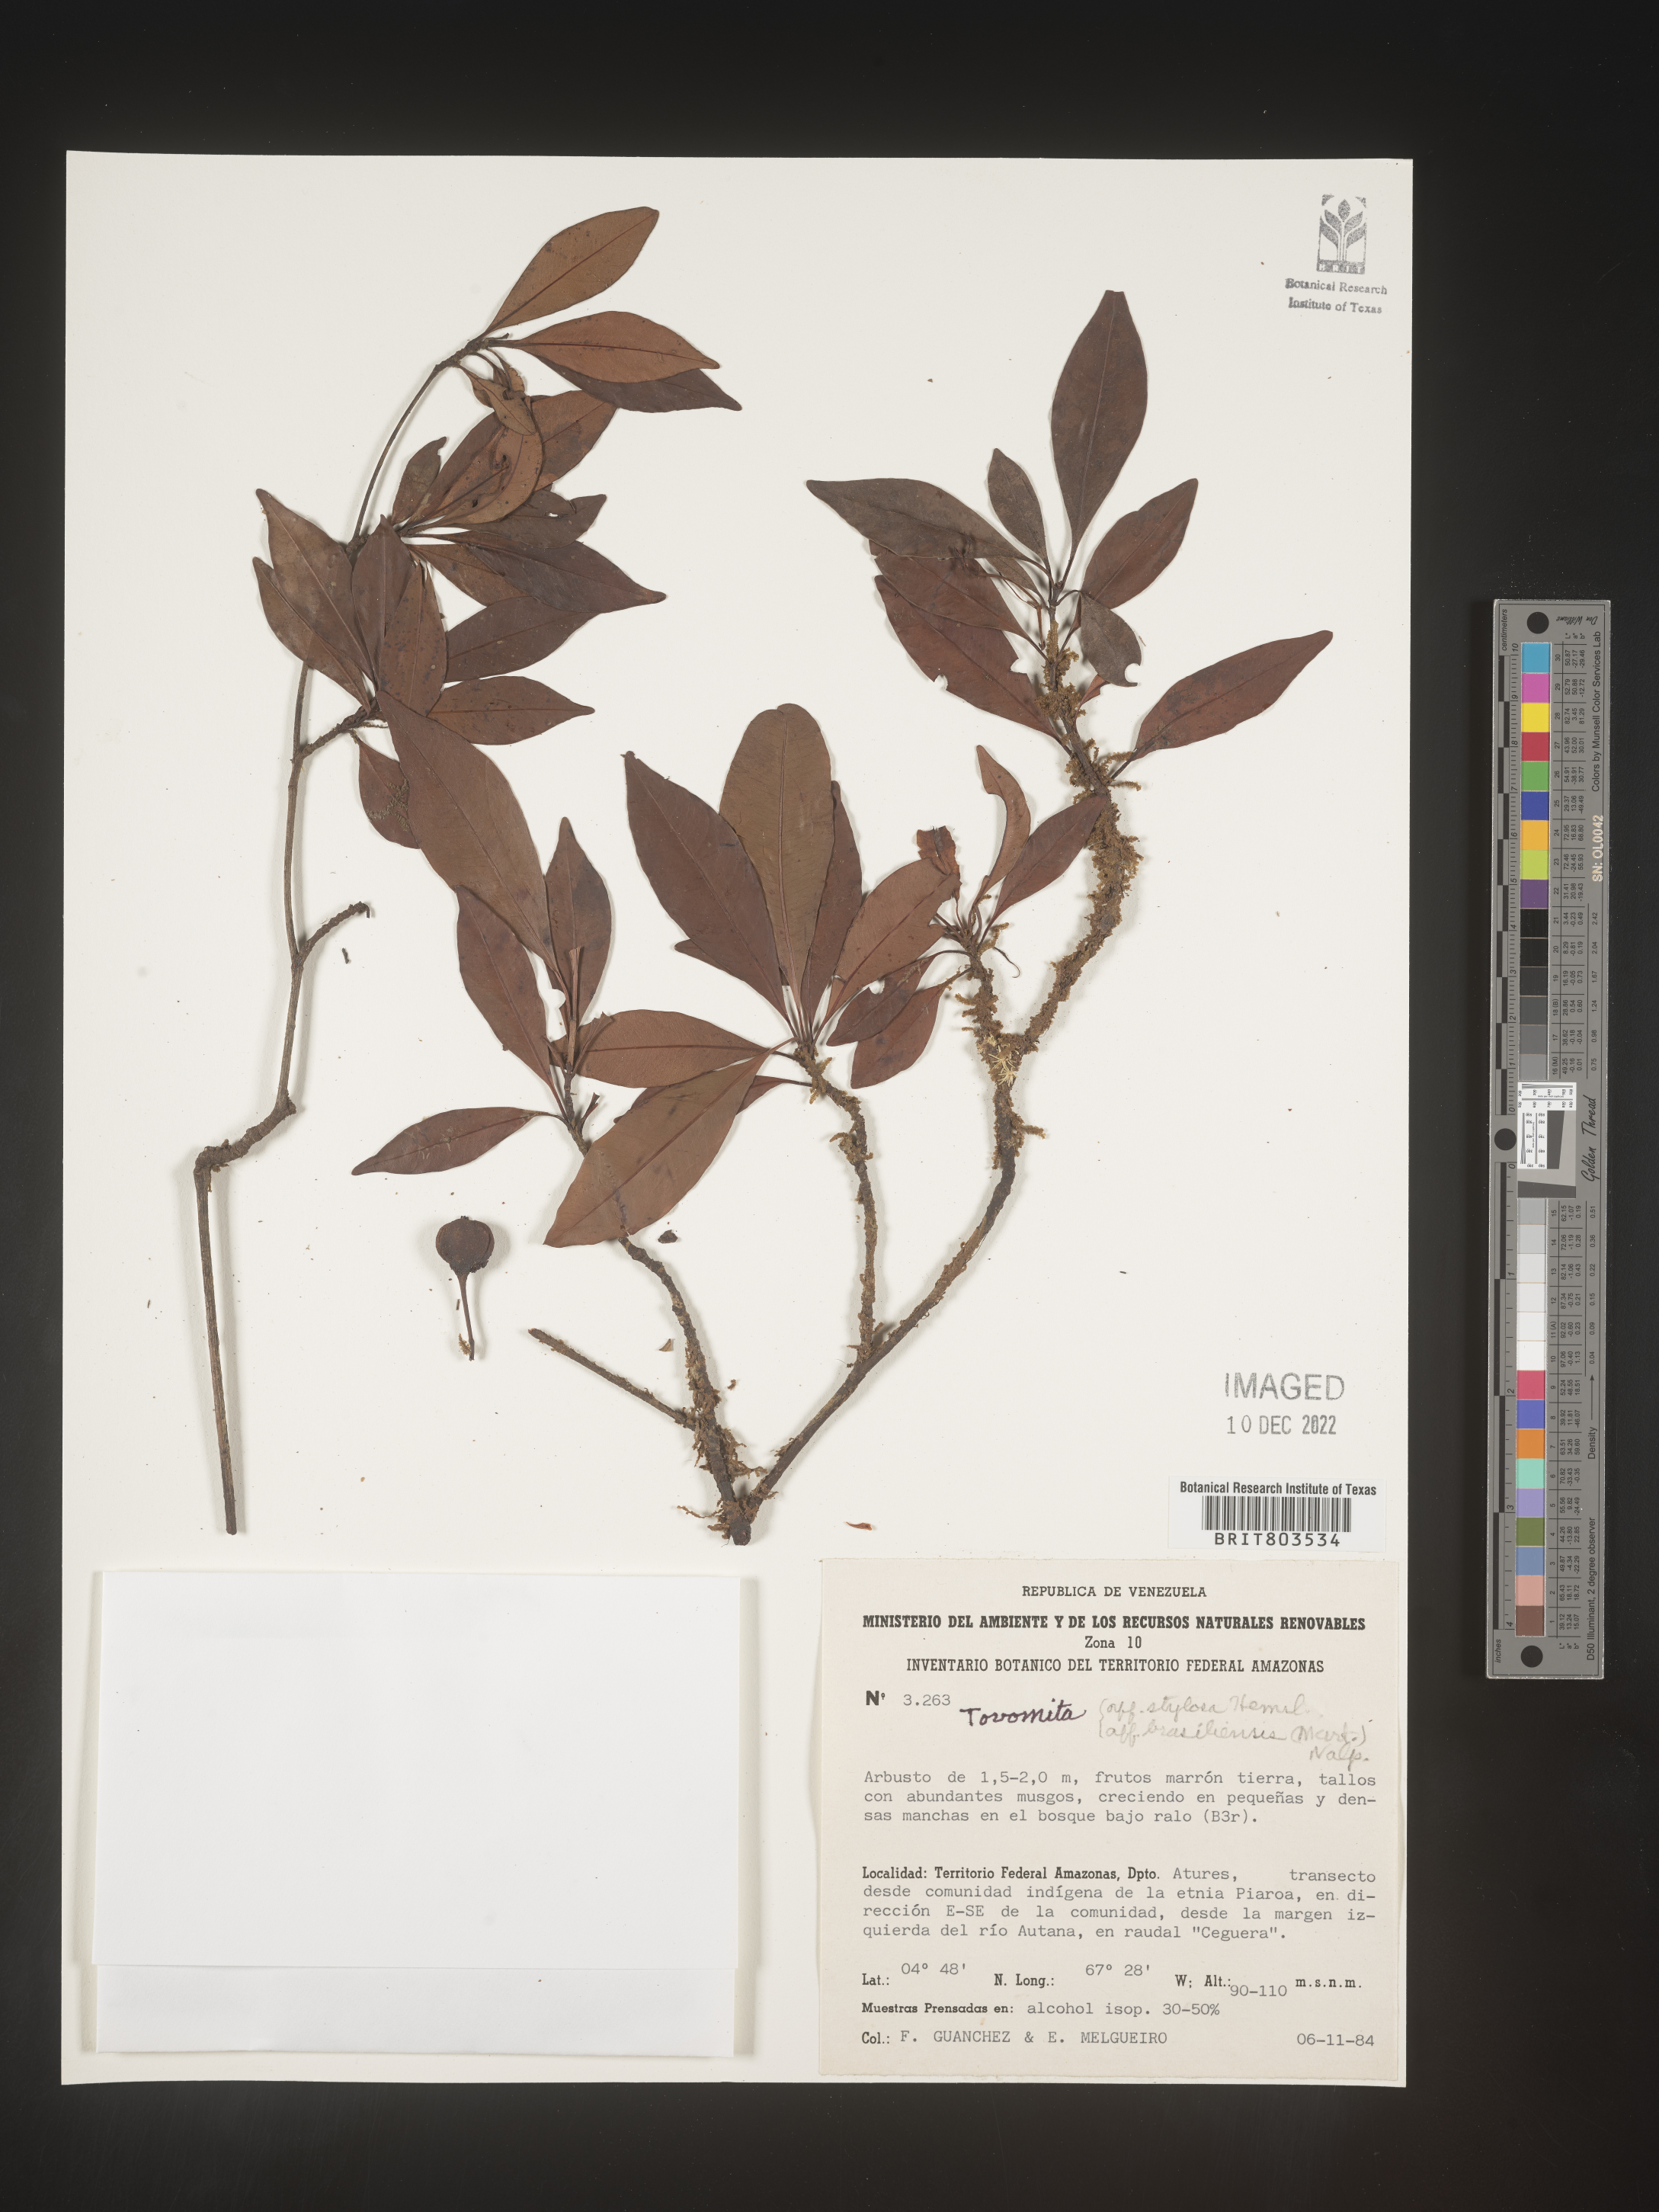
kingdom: Plantae
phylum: Tracheophyta
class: Magnoliopsida
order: Malpighiales
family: Clusiaceae
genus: Tovomita
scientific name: Tovomita
